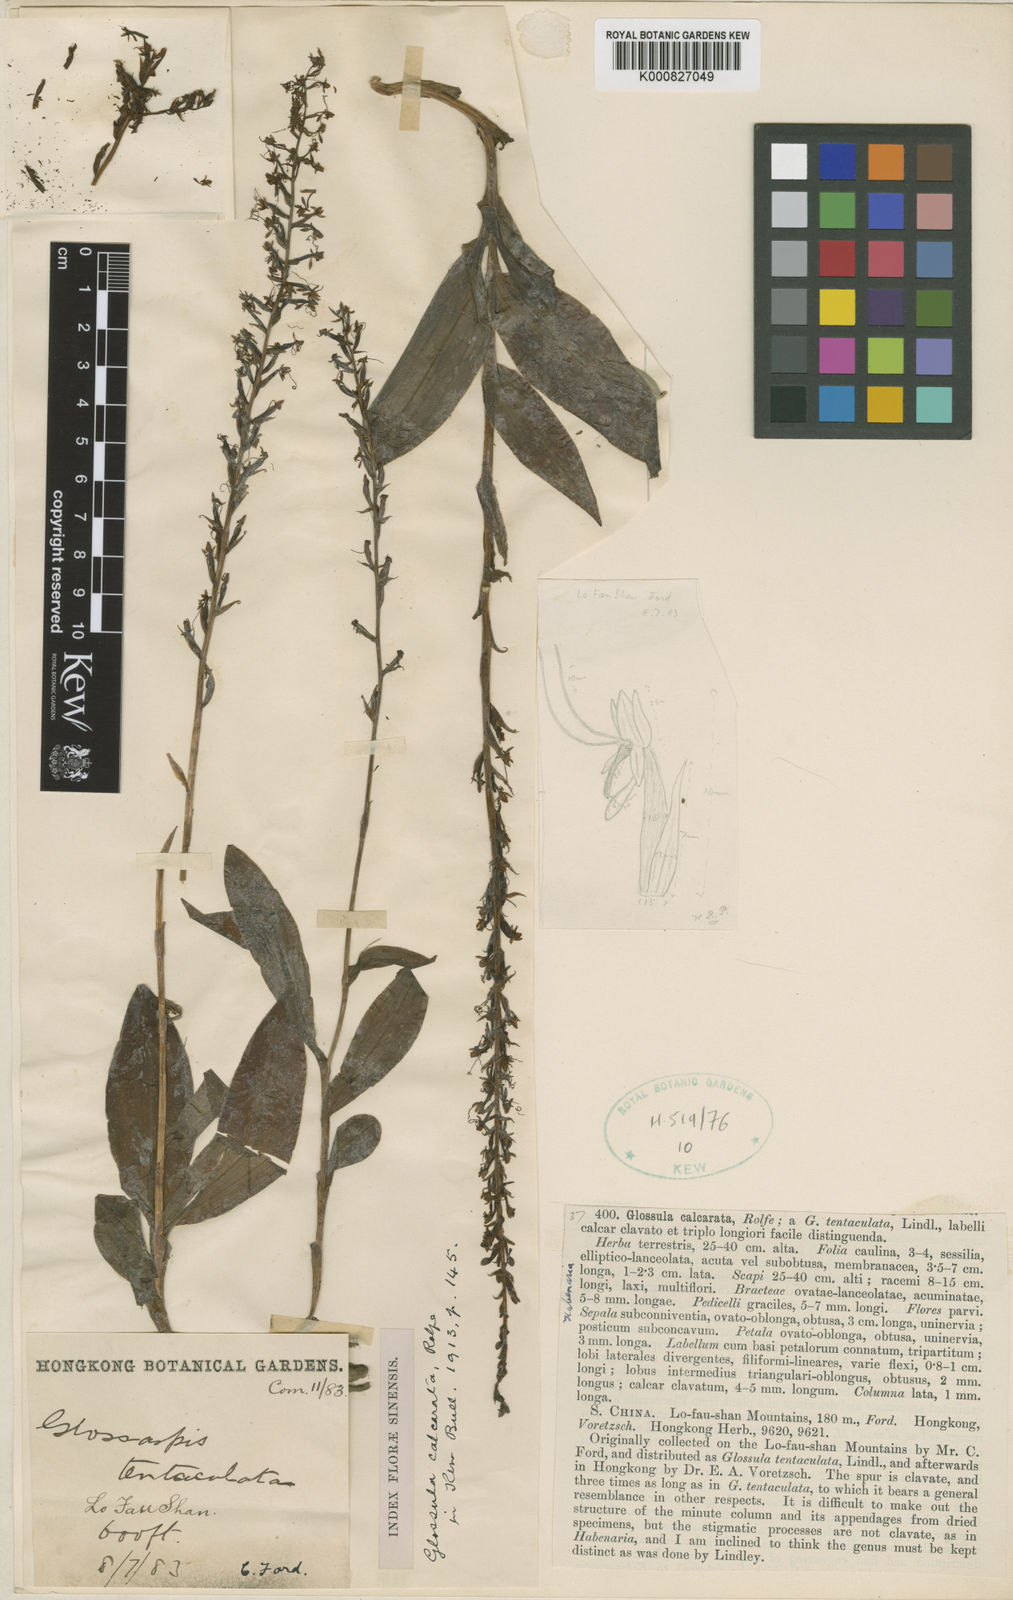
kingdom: Plantae
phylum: Tracheophyta
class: Liliopsida
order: Asparagales
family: Orchidaceae
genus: Peristylus
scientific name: Peristylus calcaratus
